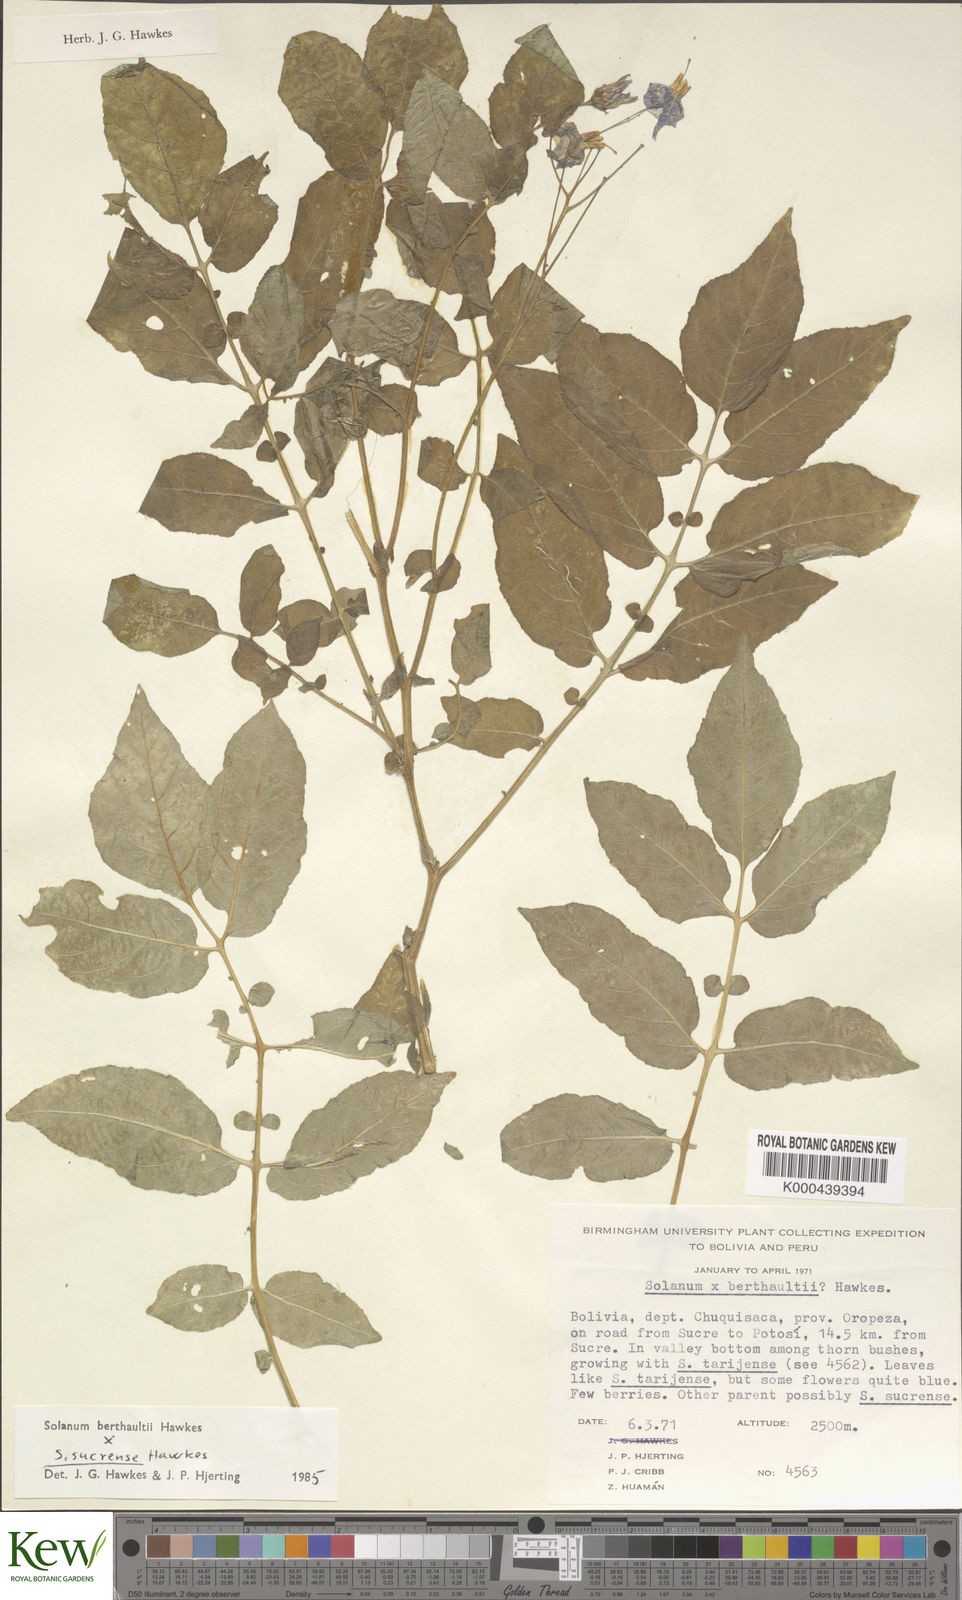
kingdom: Plantae
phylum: Tracheophyta
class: Magnoliopsida
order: Solanales
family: Solanaceae
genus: Solanum
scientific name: Solanum berthaultii
